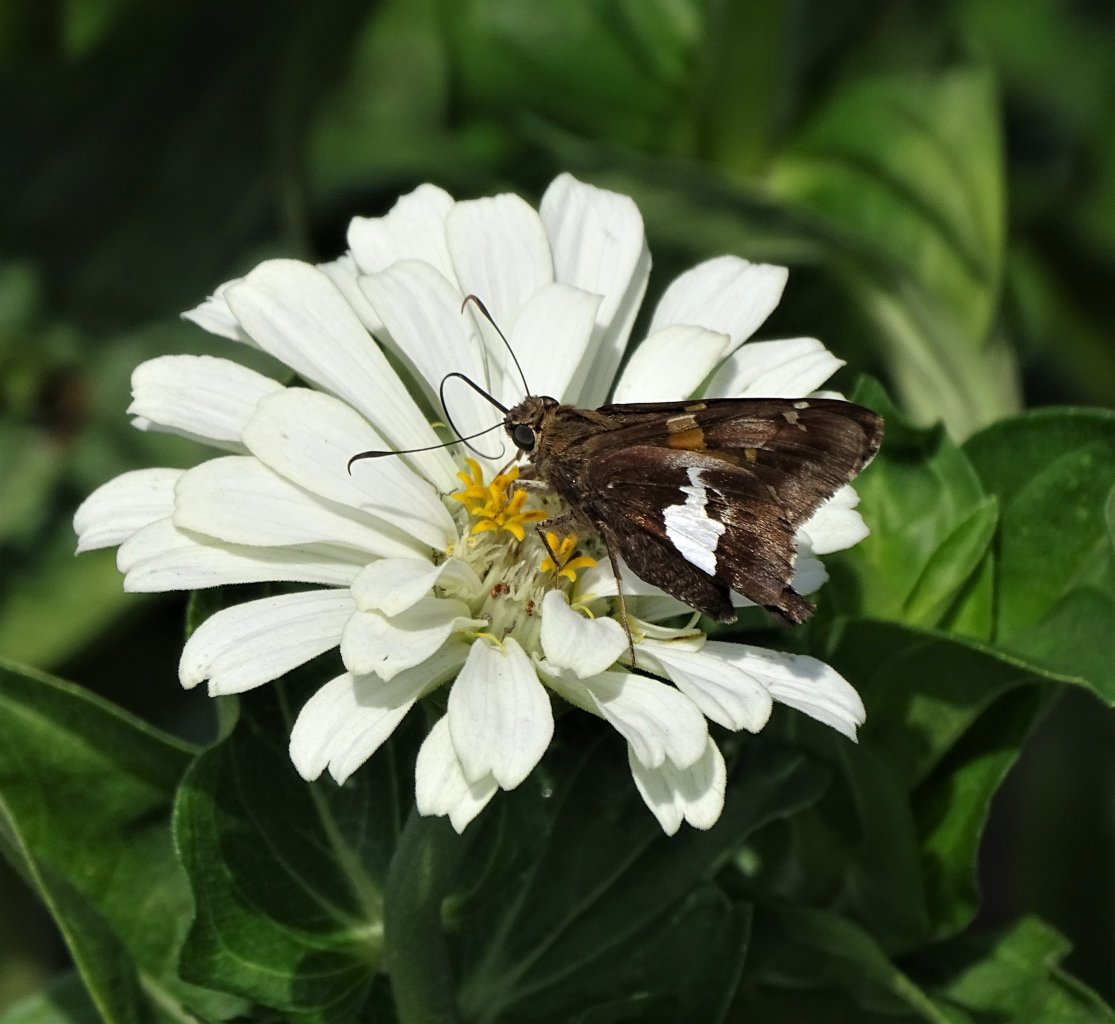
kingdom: Animalia
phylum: Arthropoda
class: Insecta
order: Lepidoptera
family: Hesperiidae
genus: Epargyreus
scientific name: Epargyreus clarus
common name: Silver-spotted Skipper
